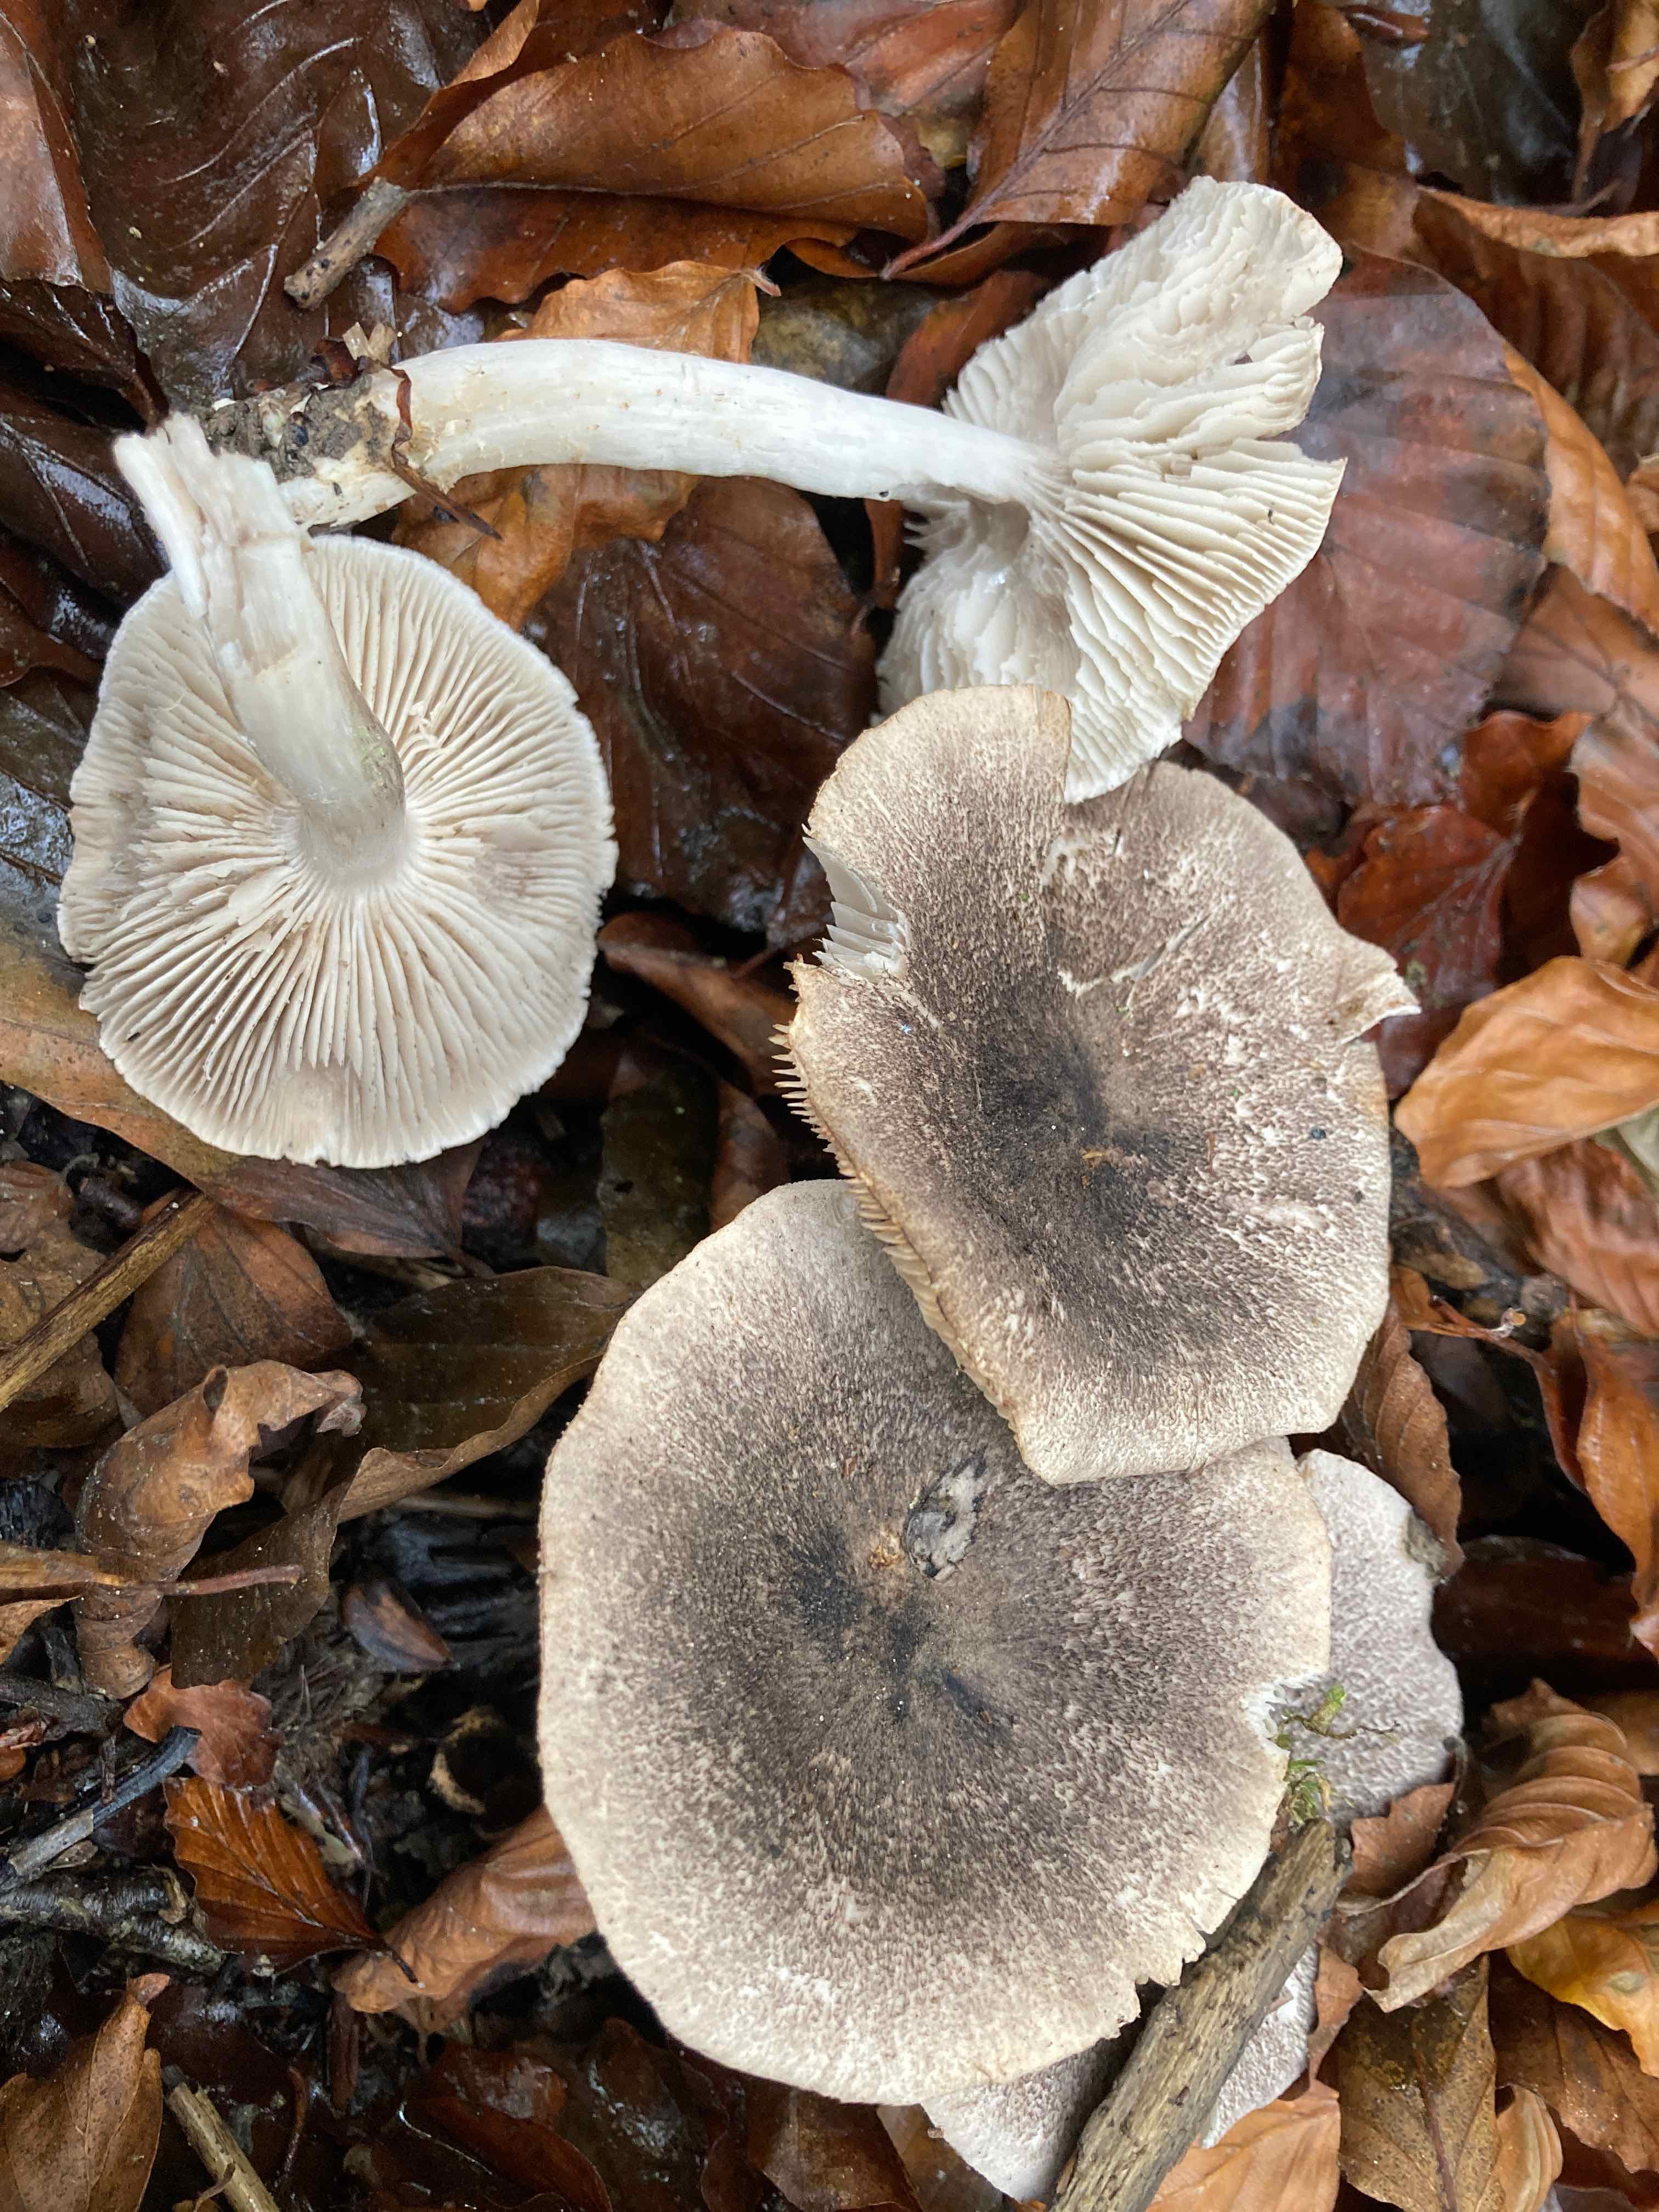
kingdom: Fungi
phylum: Basidiomycota
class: Agaricomycetes
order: Agaricales
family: Tricholomataceae
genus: Tricholoma
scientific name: Tricholoma orirubens
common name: rødbladet ridderhat
